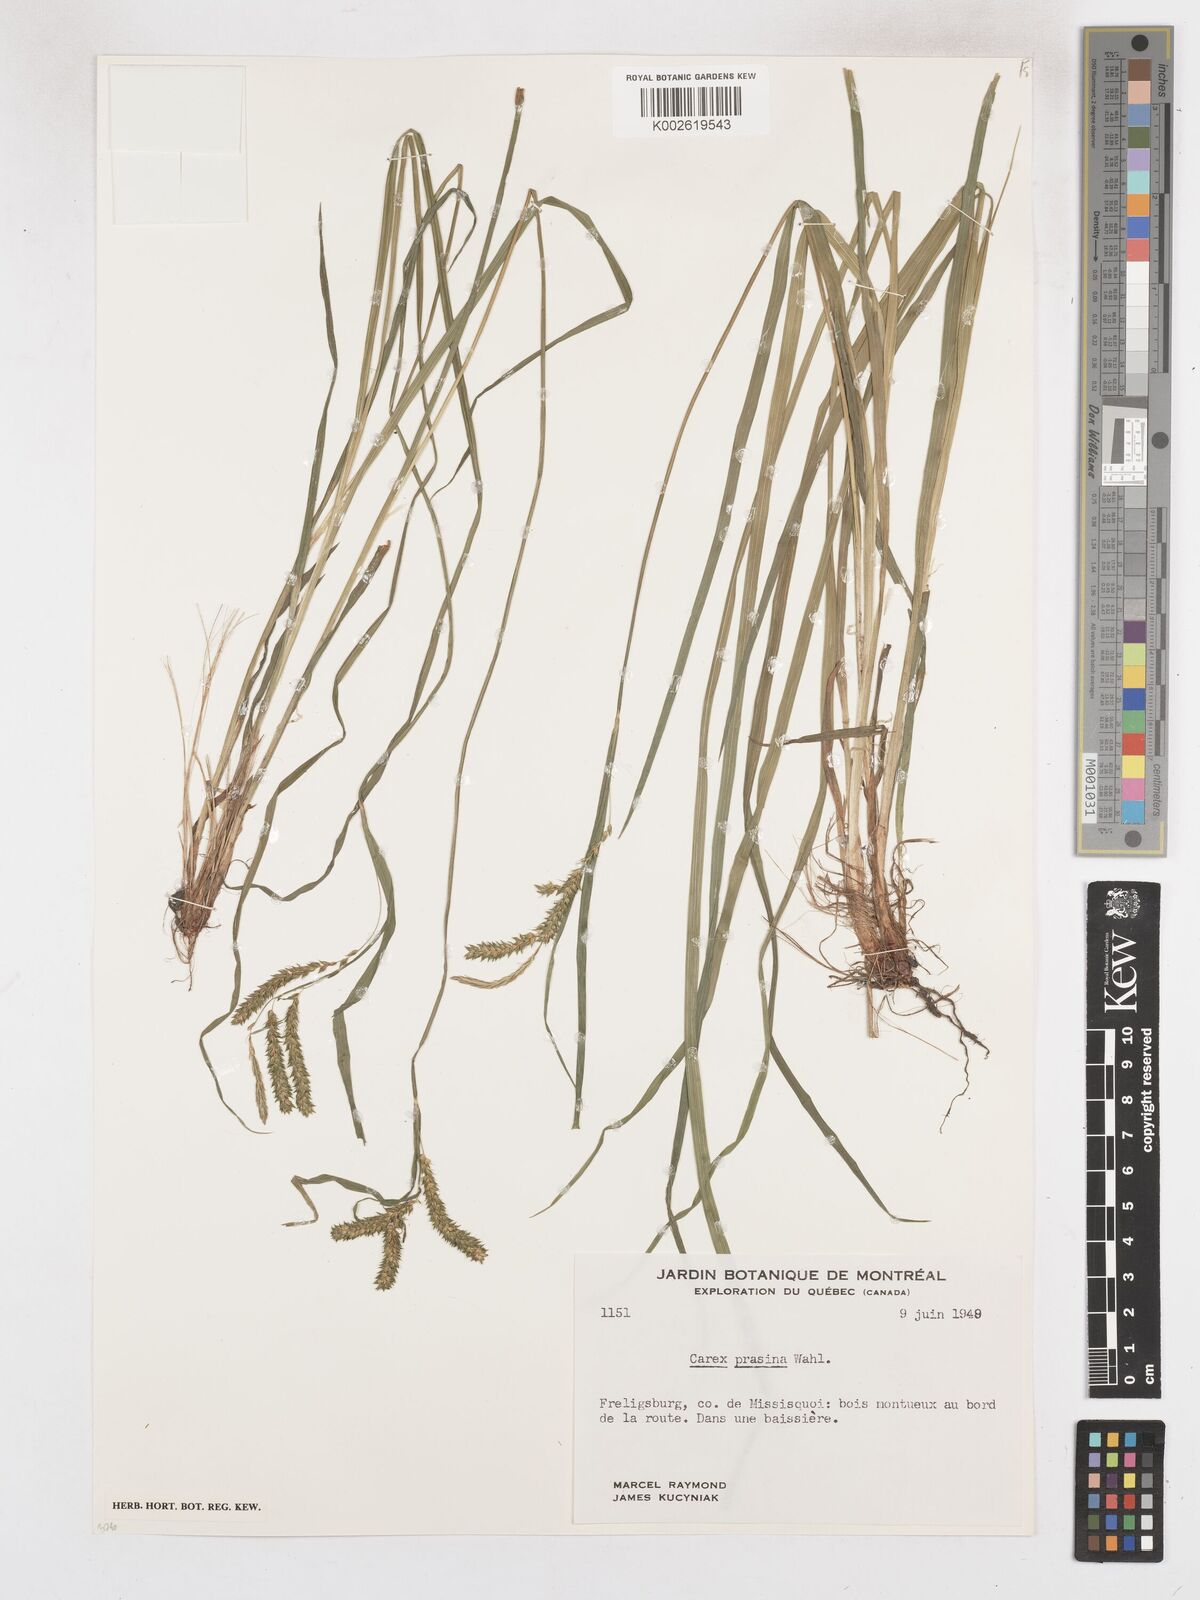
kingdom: Plantae
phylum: Tracheophyta
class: Liliopsida
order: Poales
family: Cyperaceae
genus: Carex
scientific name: Carex prasina
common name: Drooping sedge
